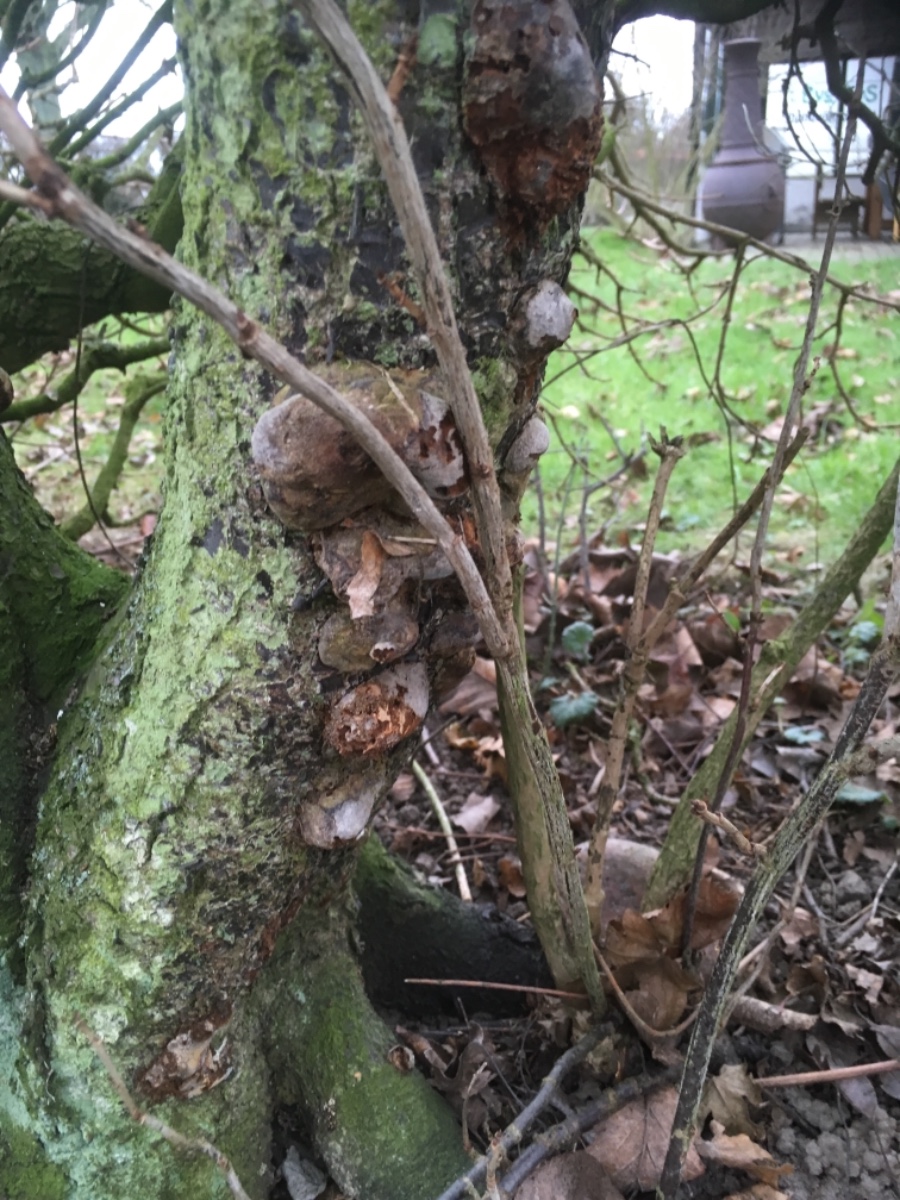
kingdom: Fungi
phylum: Basidiomycota
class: Agaricomycetes
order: Hymenochaetales
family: Hymenochaetaceae
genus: Phellinus
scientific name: Phellinus pomaceus
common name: blomme-ildporesvamp
